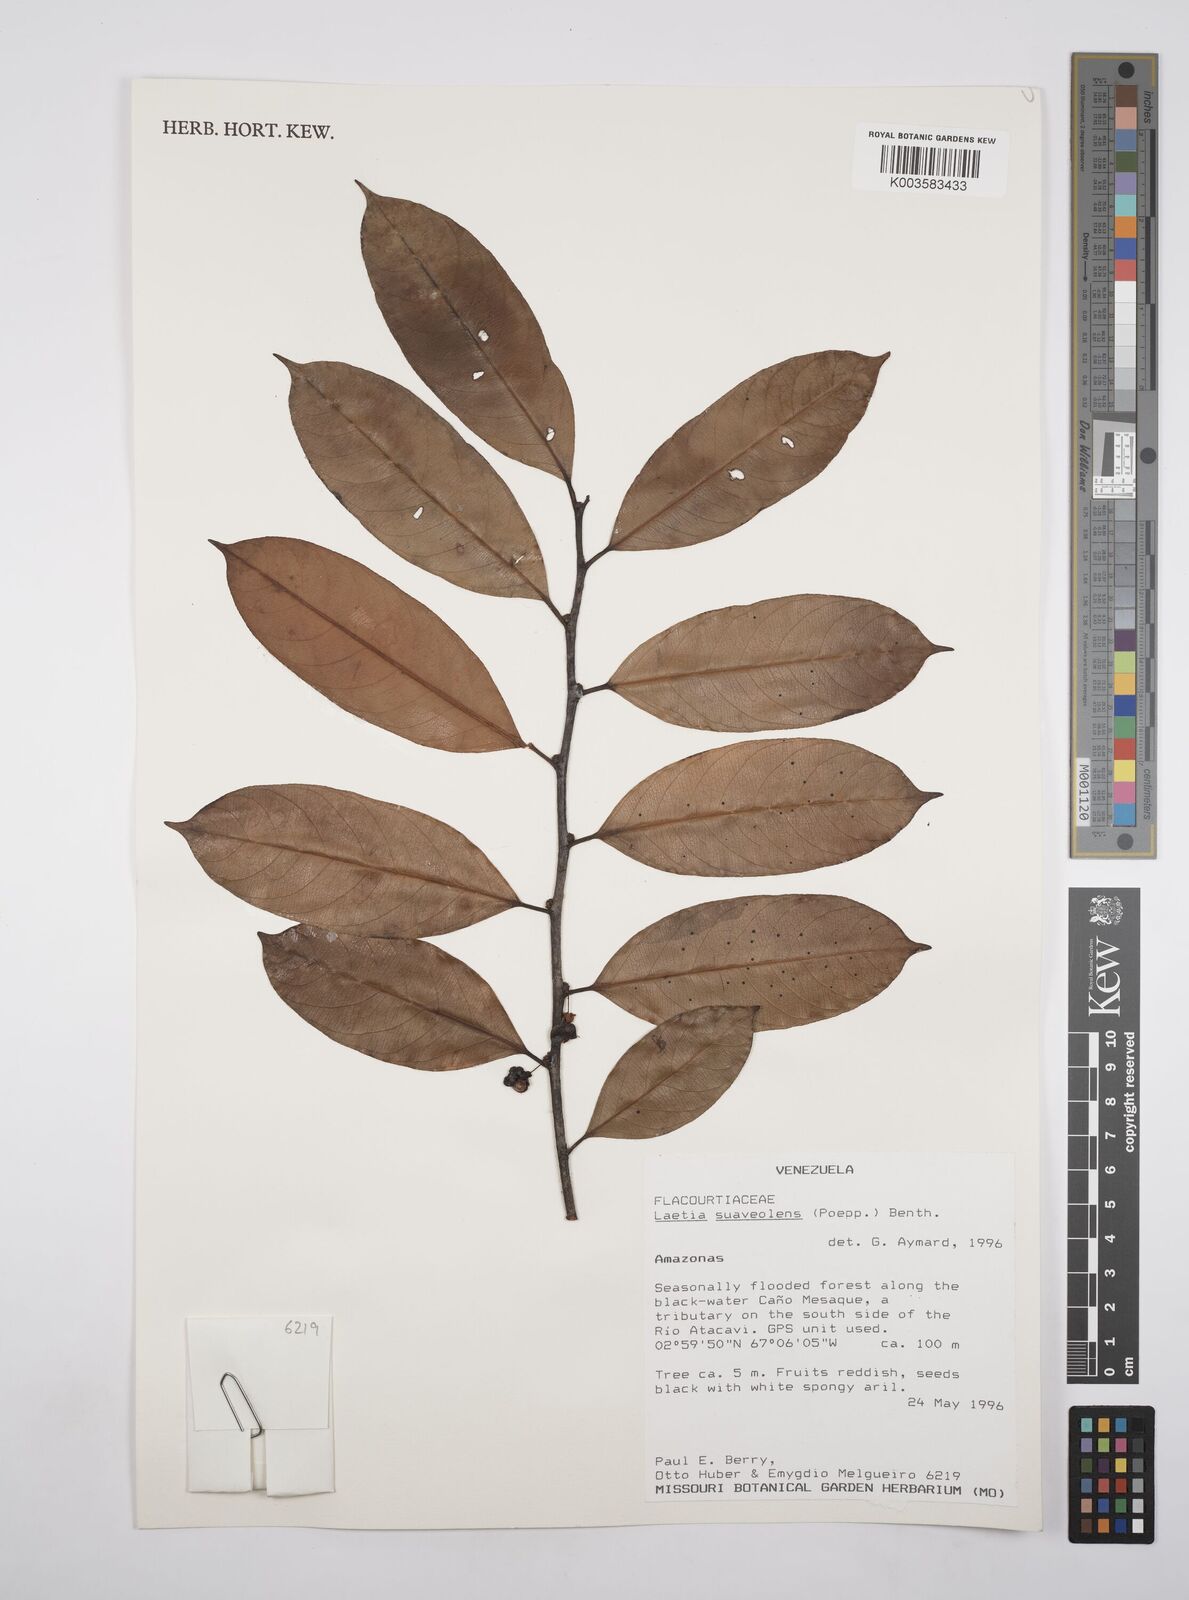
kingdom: Plantae
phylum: Tracheophyta
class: Magnoliopsida
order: Malpighiales
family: Salicaceae
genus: Casearia
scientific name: Casearia suaveolens
